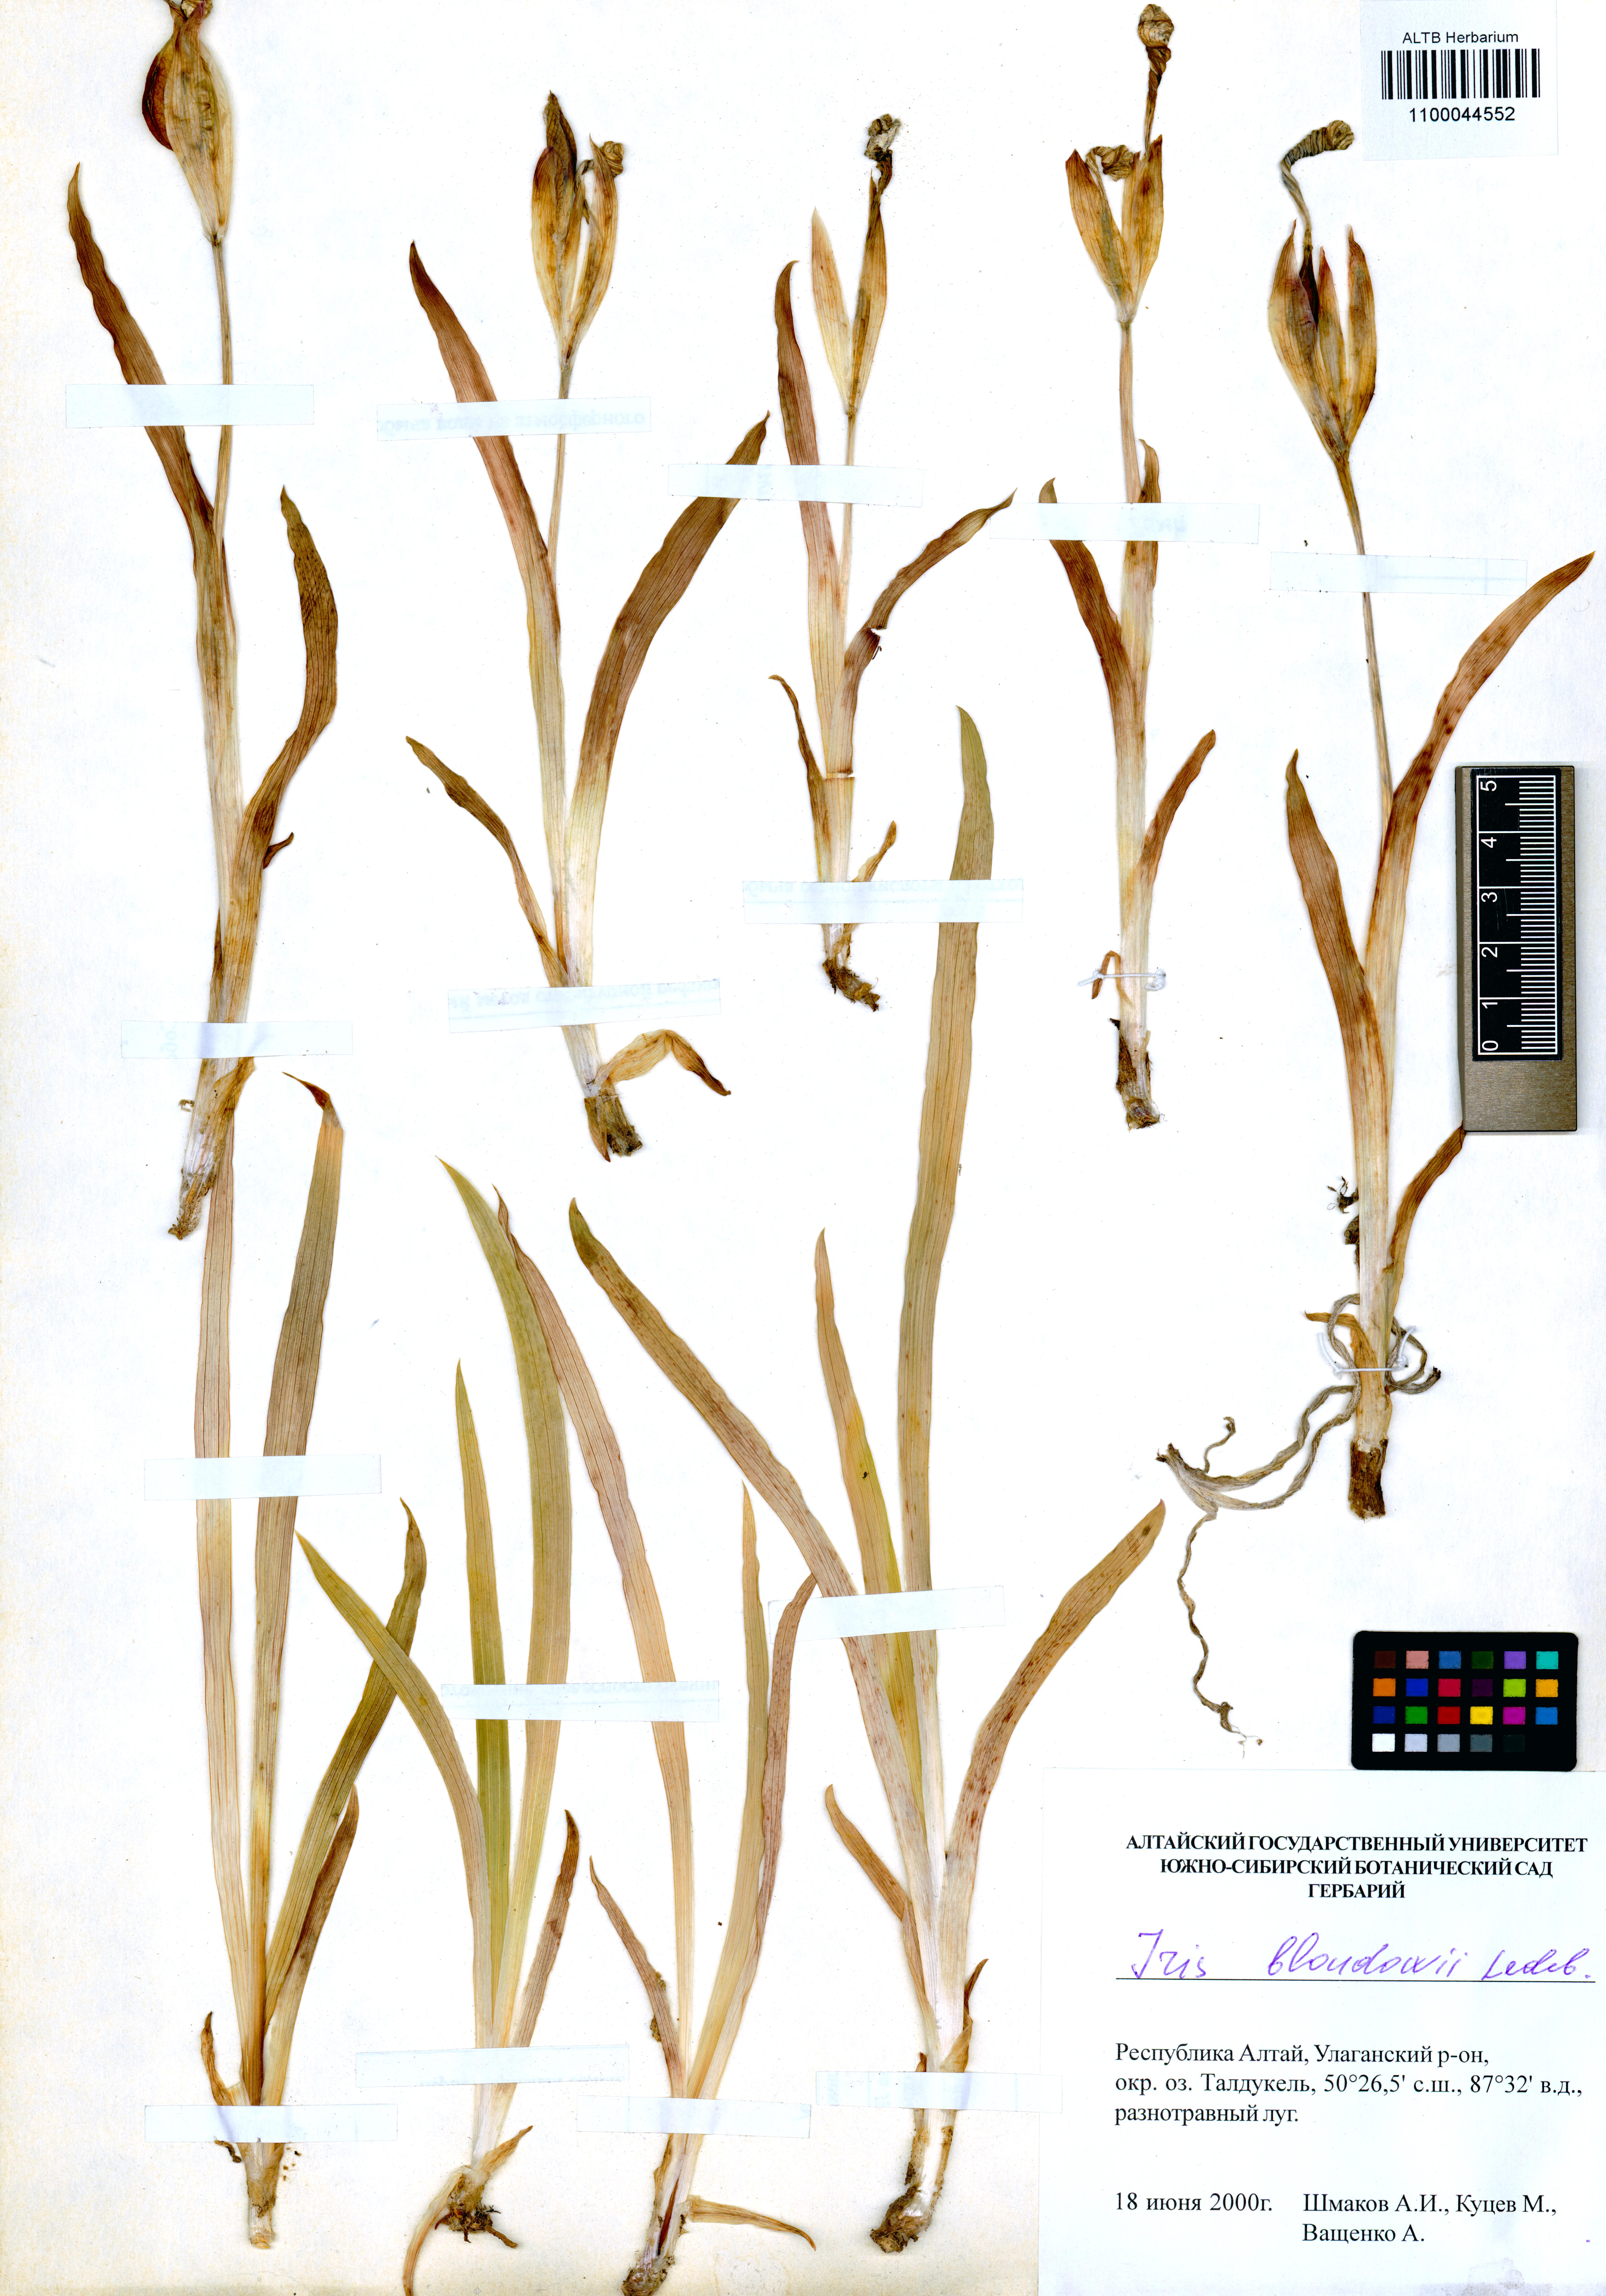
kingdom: Plantae
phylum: Tracheophyta
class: Liliopsida
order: Asparagales
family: Iridaceae
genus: Iris
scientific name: Iris bloudowii
